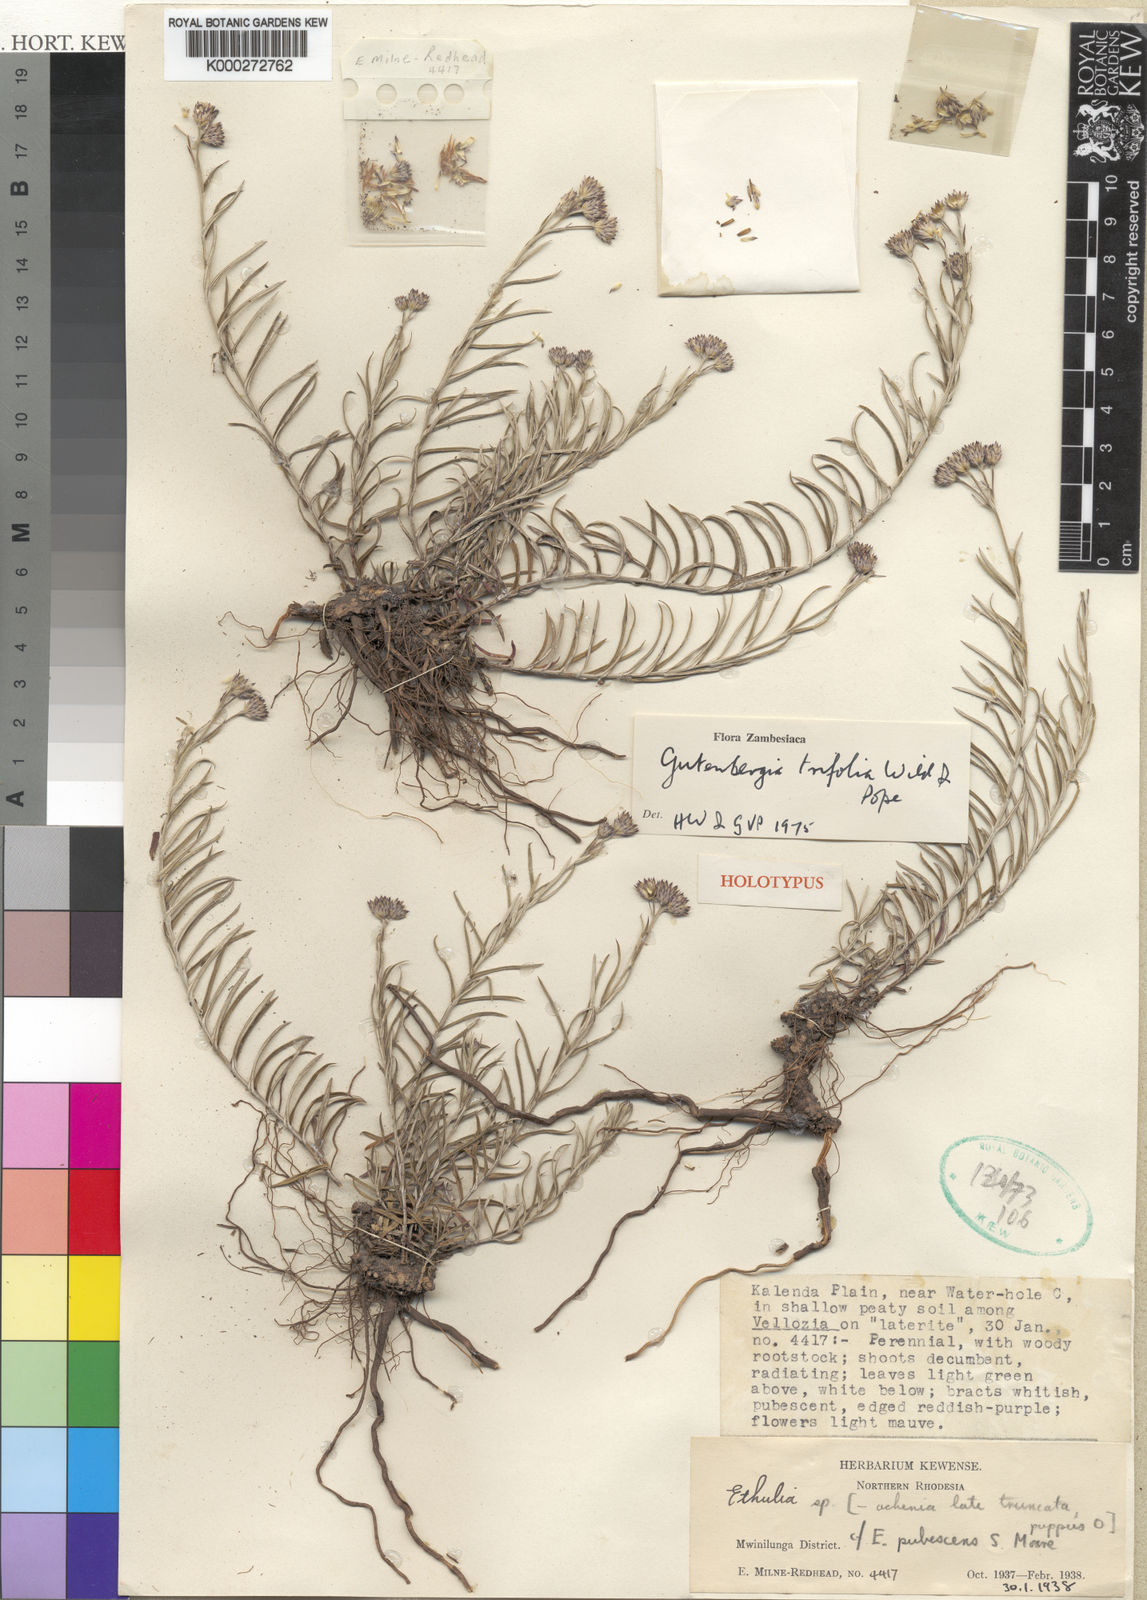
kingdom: Plantae
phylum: Tracheophyta
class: Magnoliopsida
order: Asterales
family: Asteraceae
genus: Gutenbergia
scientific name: Gutenbergia trifolia
